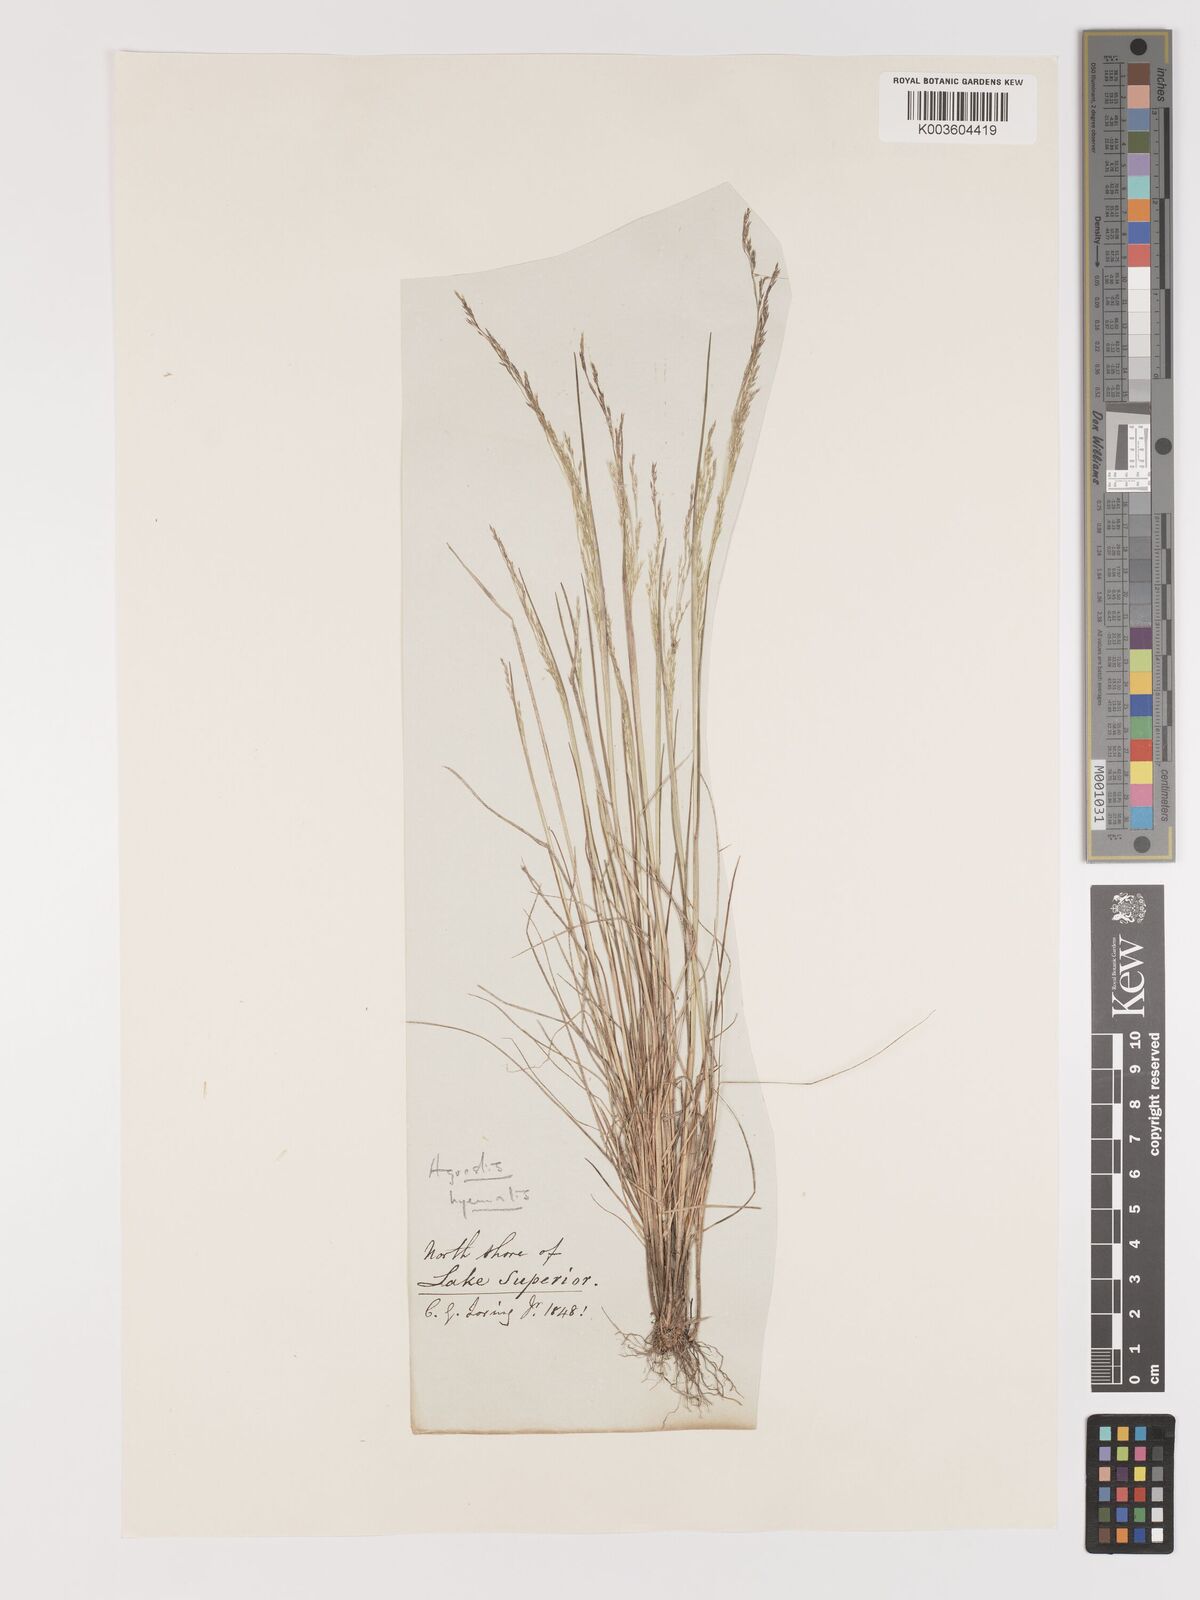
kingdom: Plantae
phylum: Tracheophyta
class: Liliopsida
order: Poales
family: Poaceae
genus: Agrostis
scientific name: Agrostis hyemalis
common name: Small bent
